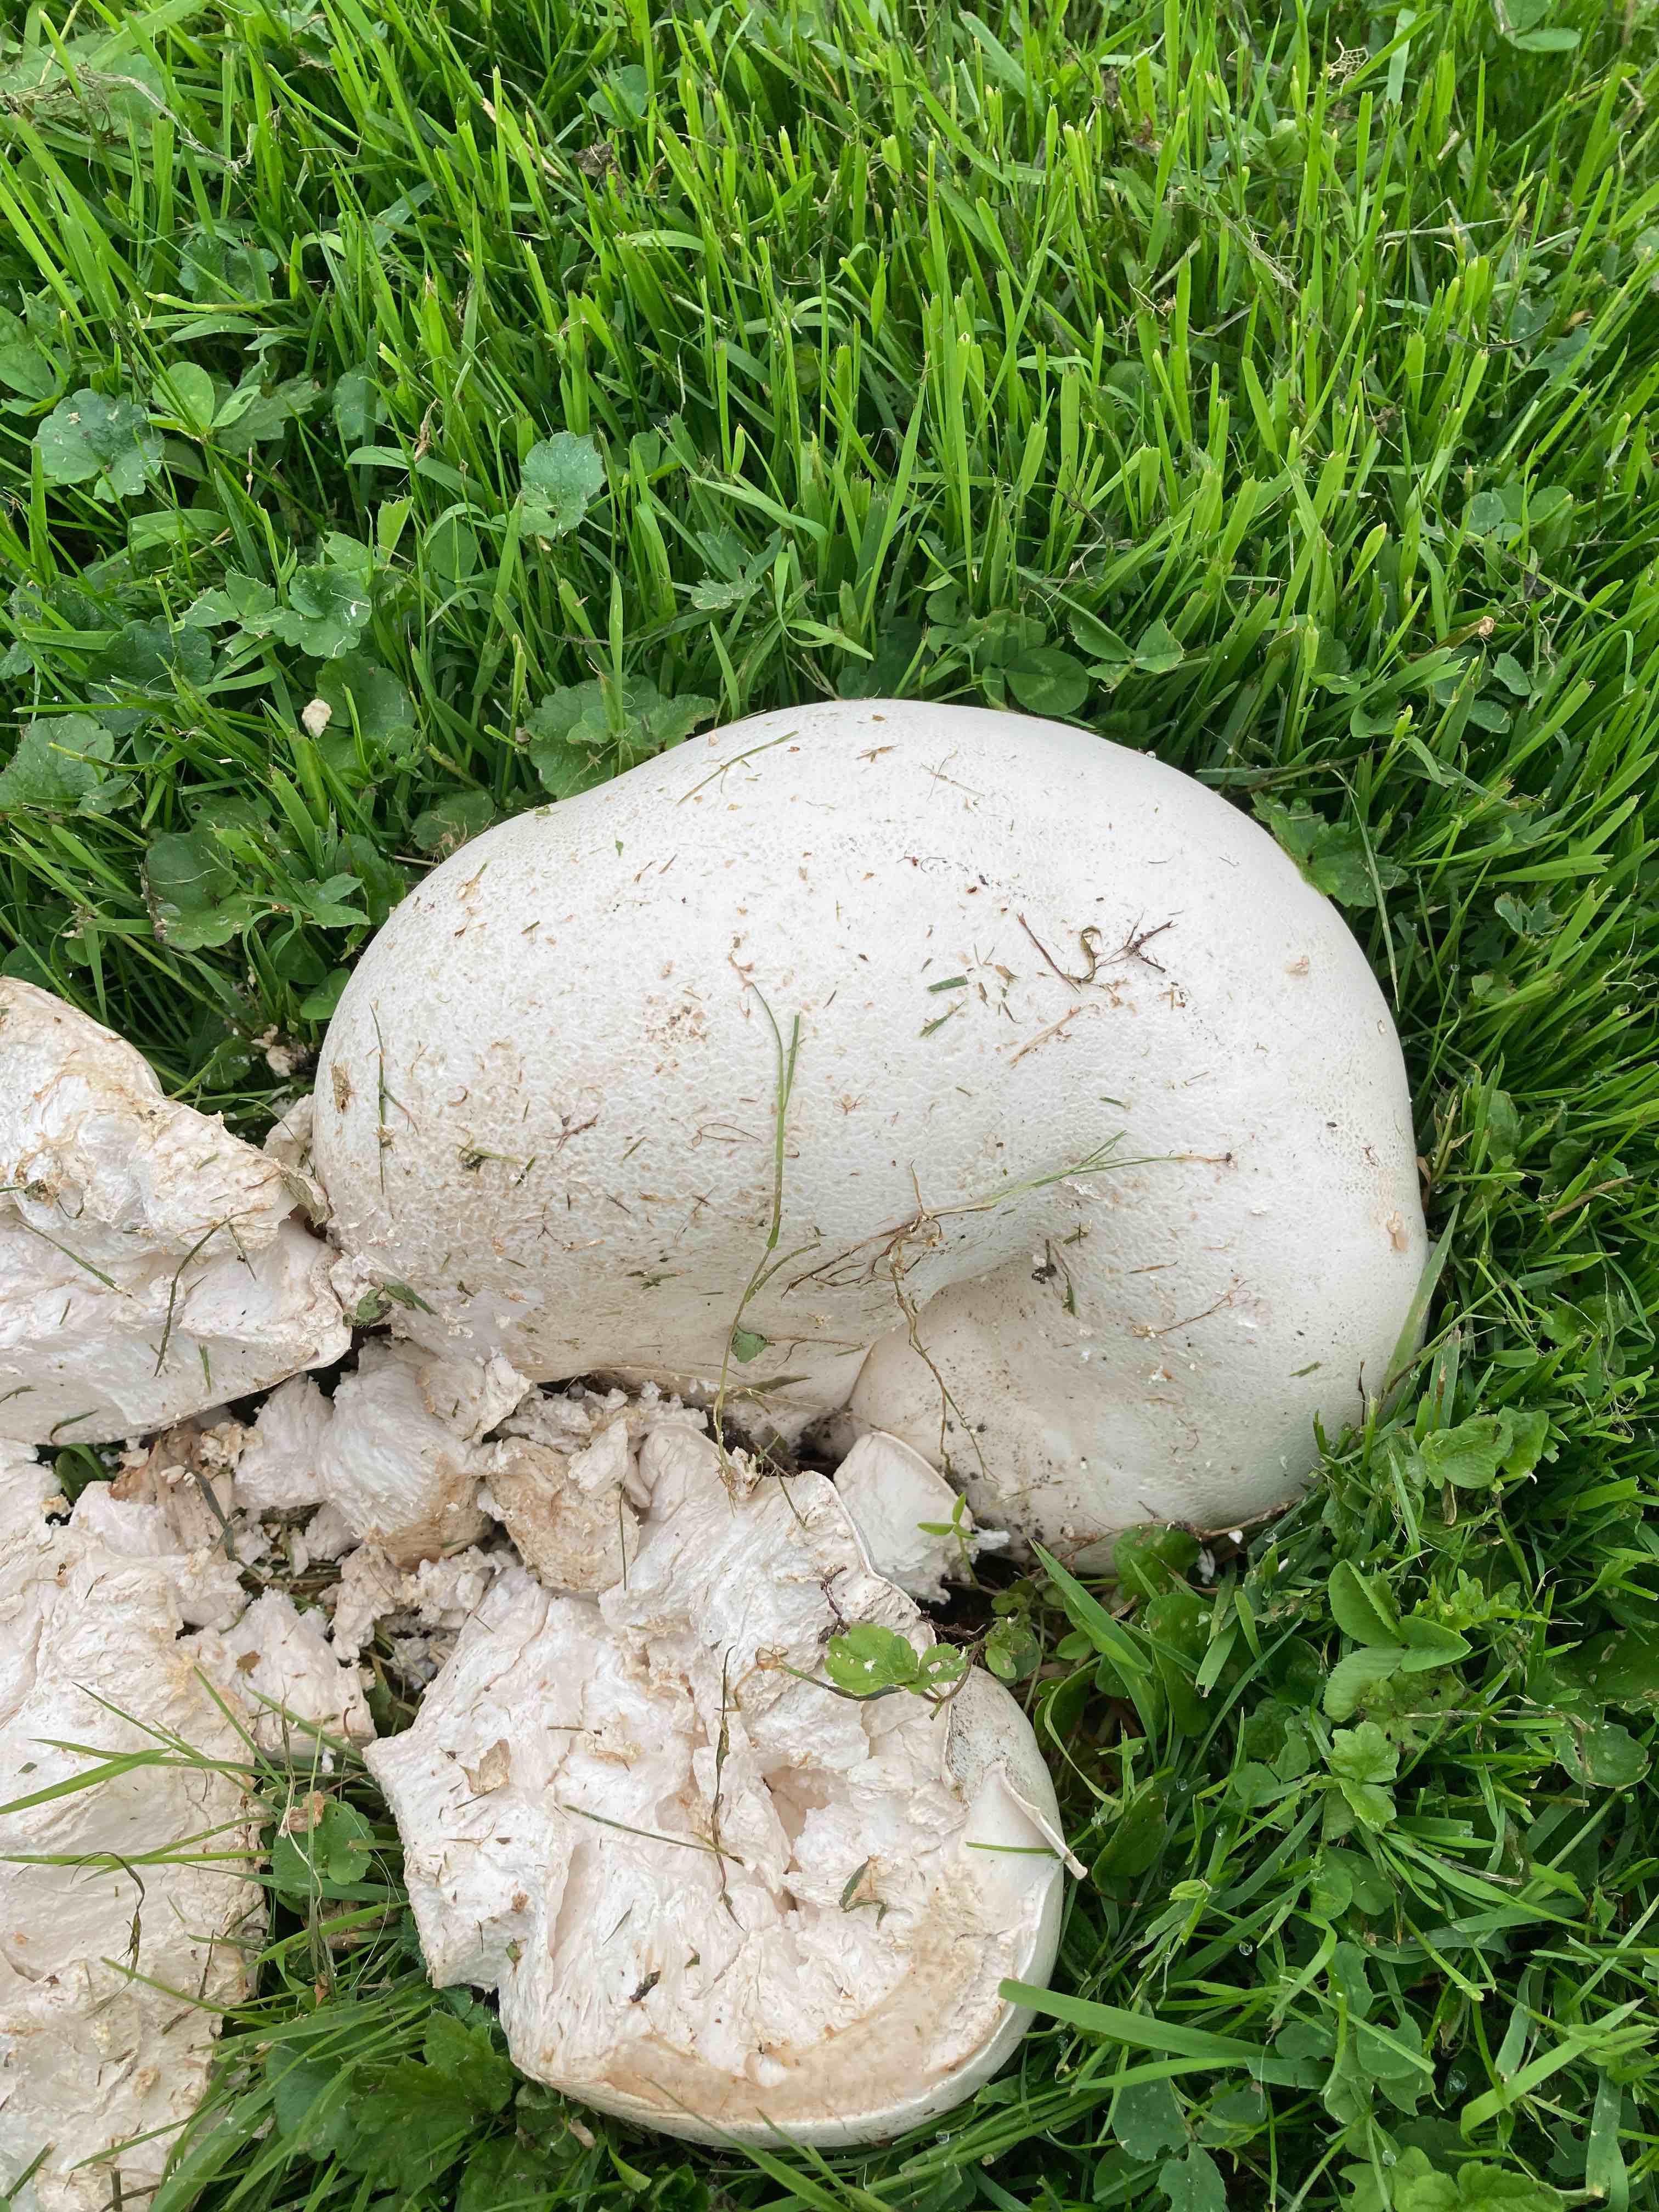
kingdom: Fungi
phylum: Basidiomycota
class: Agaricomycetes
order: Agaricales
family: Lycoperdaceae
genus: Calvatia
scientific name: Calvatia gigantea
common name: kæmpestøvbold
